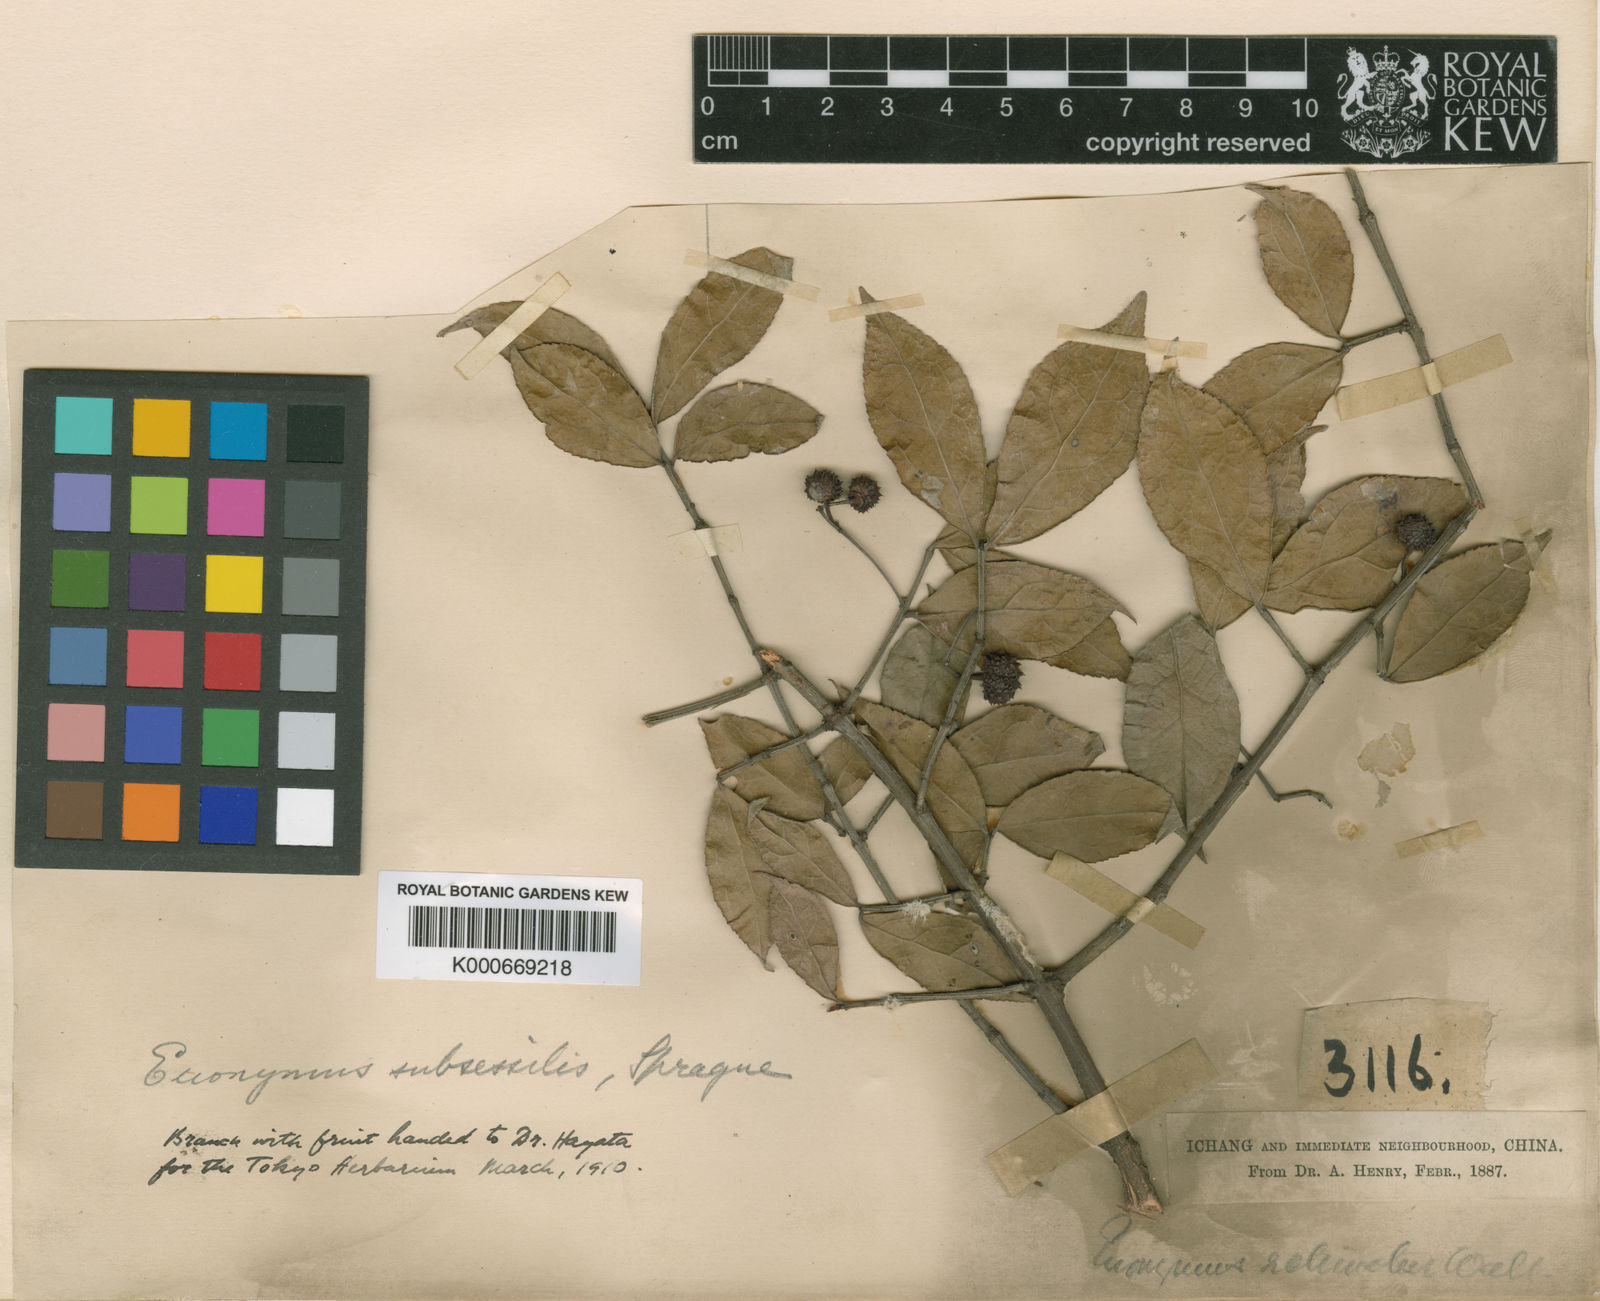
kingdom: Plantae
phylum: Tracheophyta
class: Magnoliopsida
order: Celastrales
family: Celastraceae
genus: Euonymus
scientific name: Euonymus echinatus
